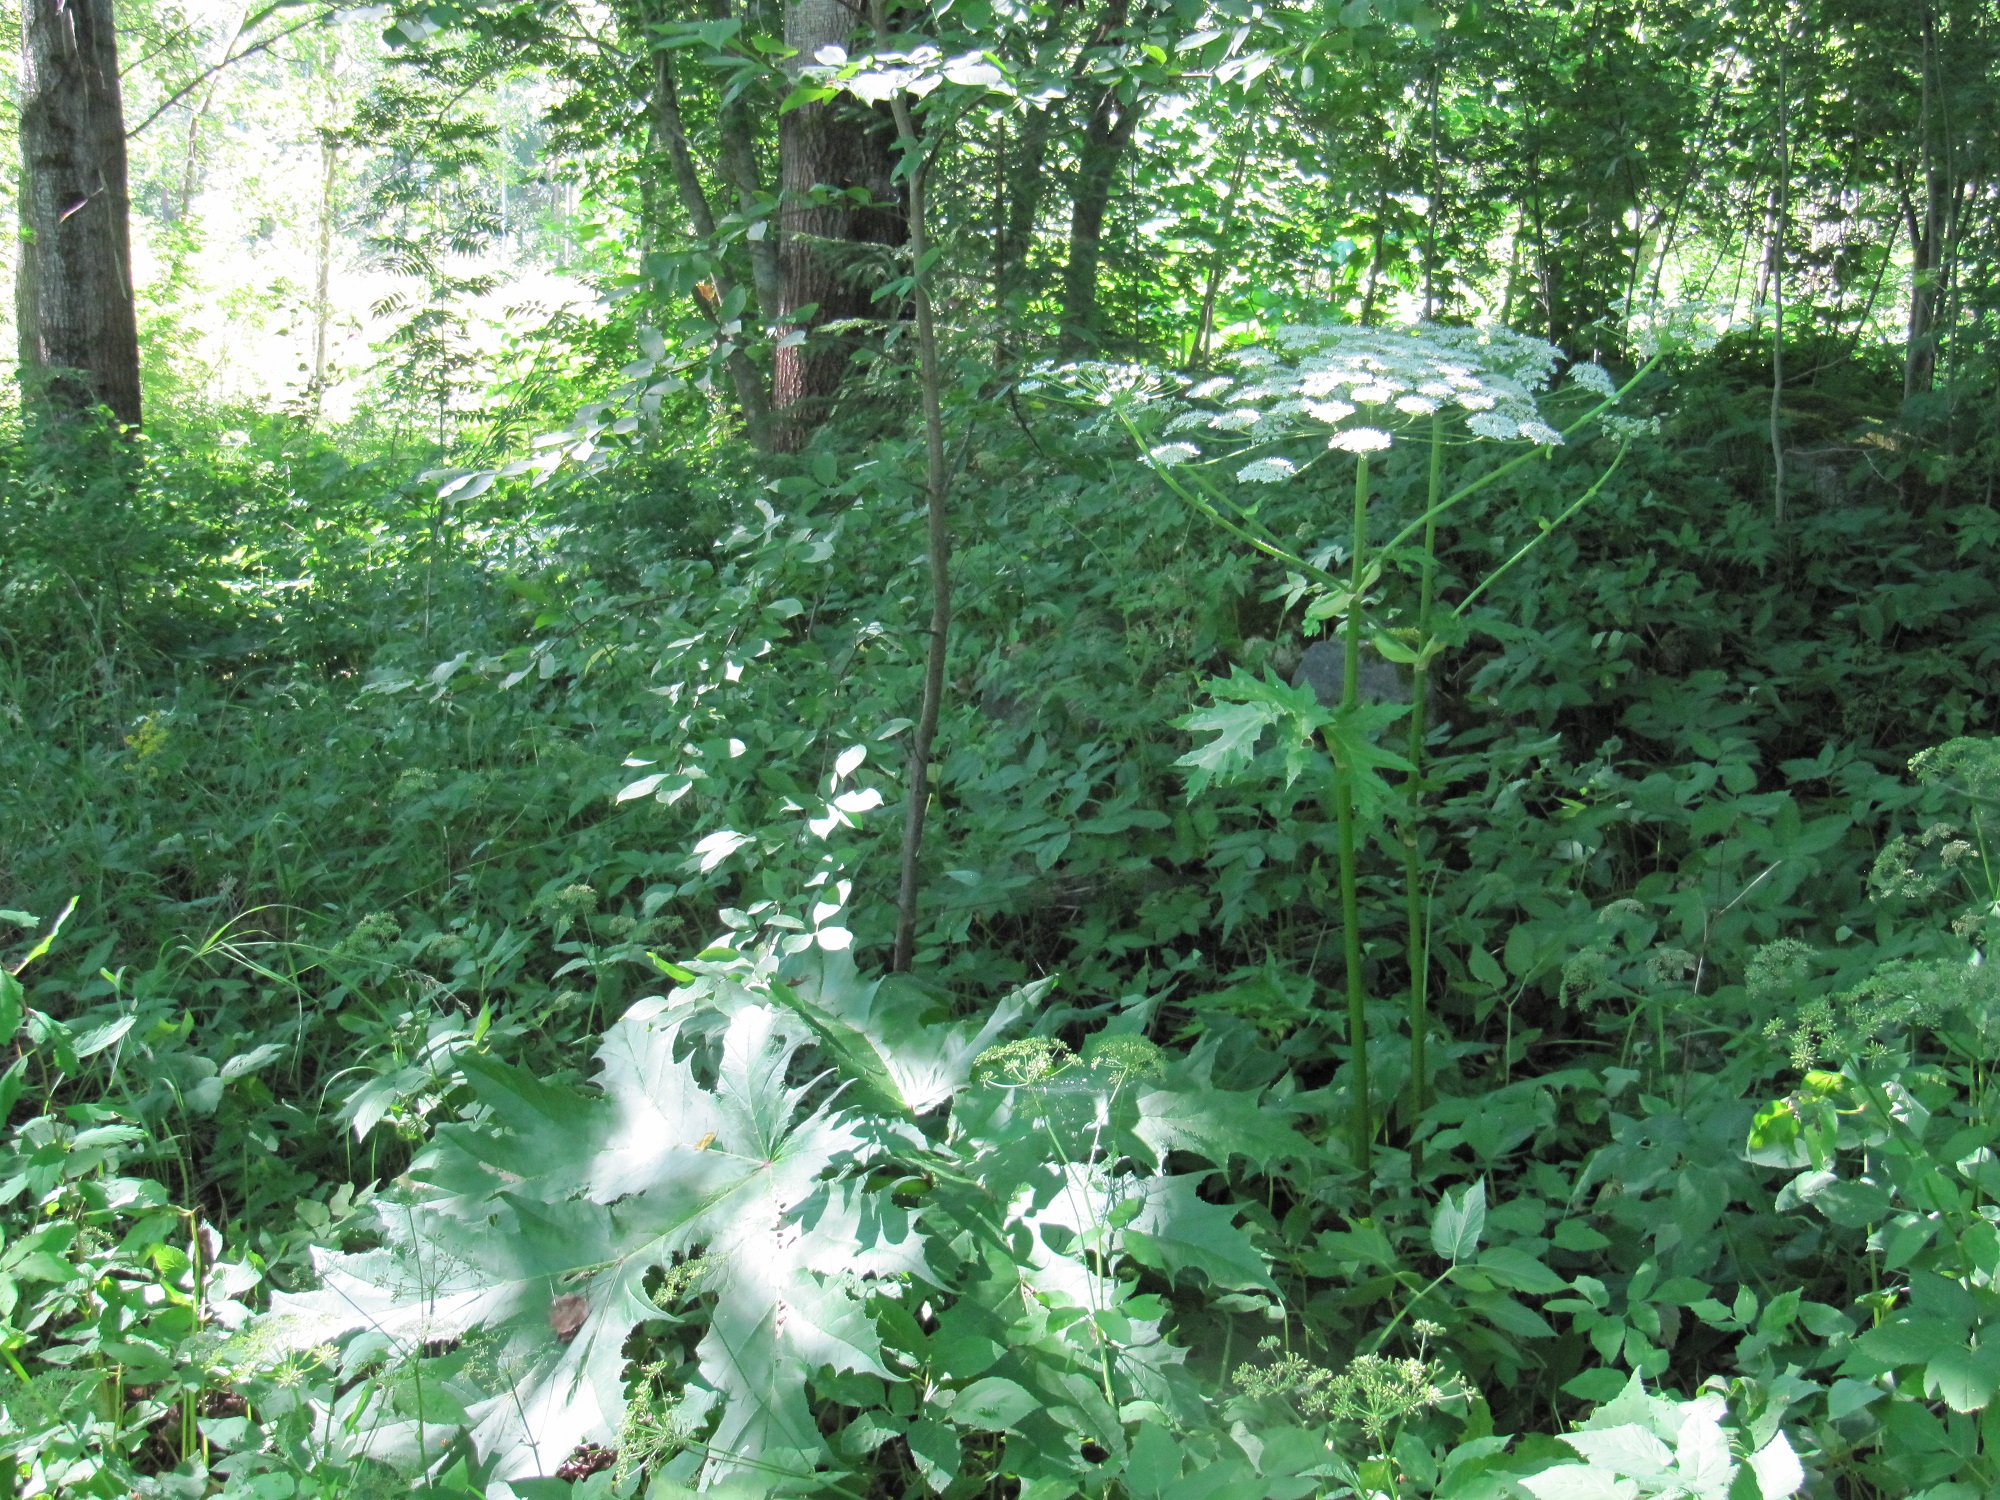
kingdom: Plantae
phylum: Tracheophyta
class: Magnoliopsida
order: Apiales
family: Apiaceae
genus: Heracleum
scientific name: Heracleum
